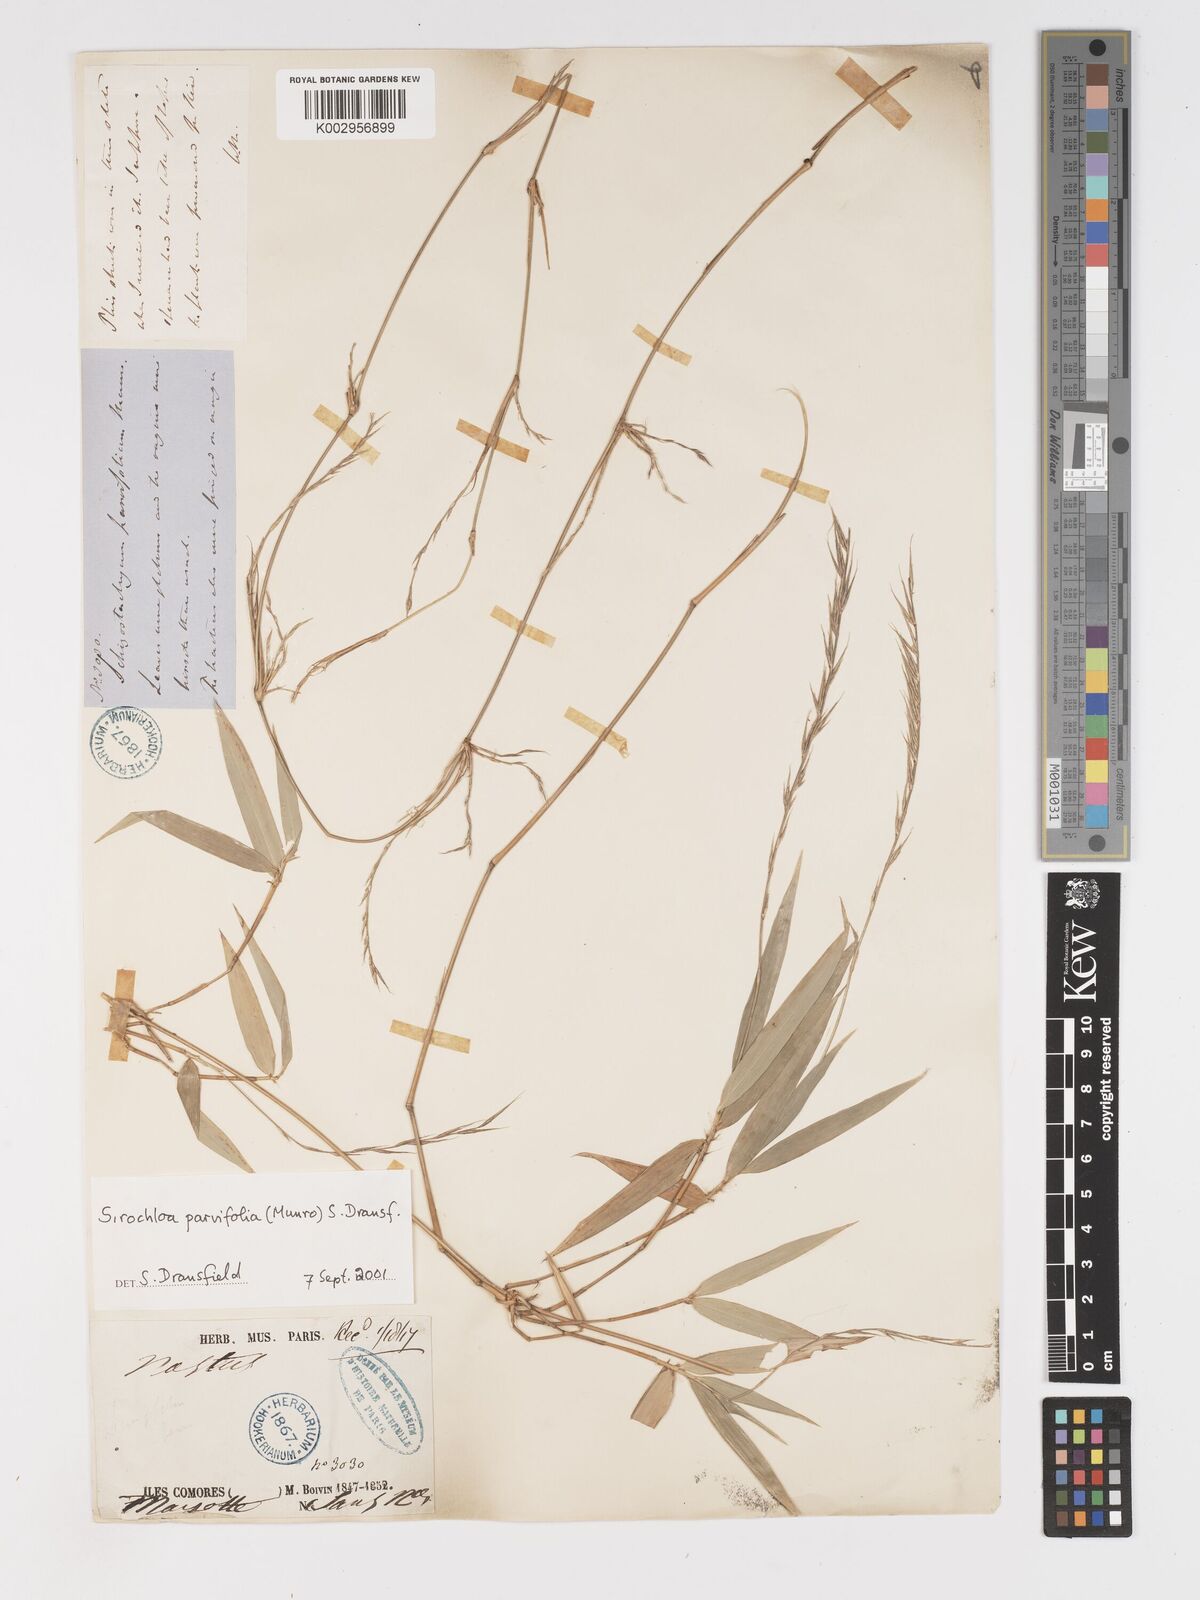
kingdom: Plantae
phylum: Tracheophyta
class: Liliopsida
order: Poales
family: Poaceae
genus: Sirochloa
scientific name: Sirochloa parvifolia
